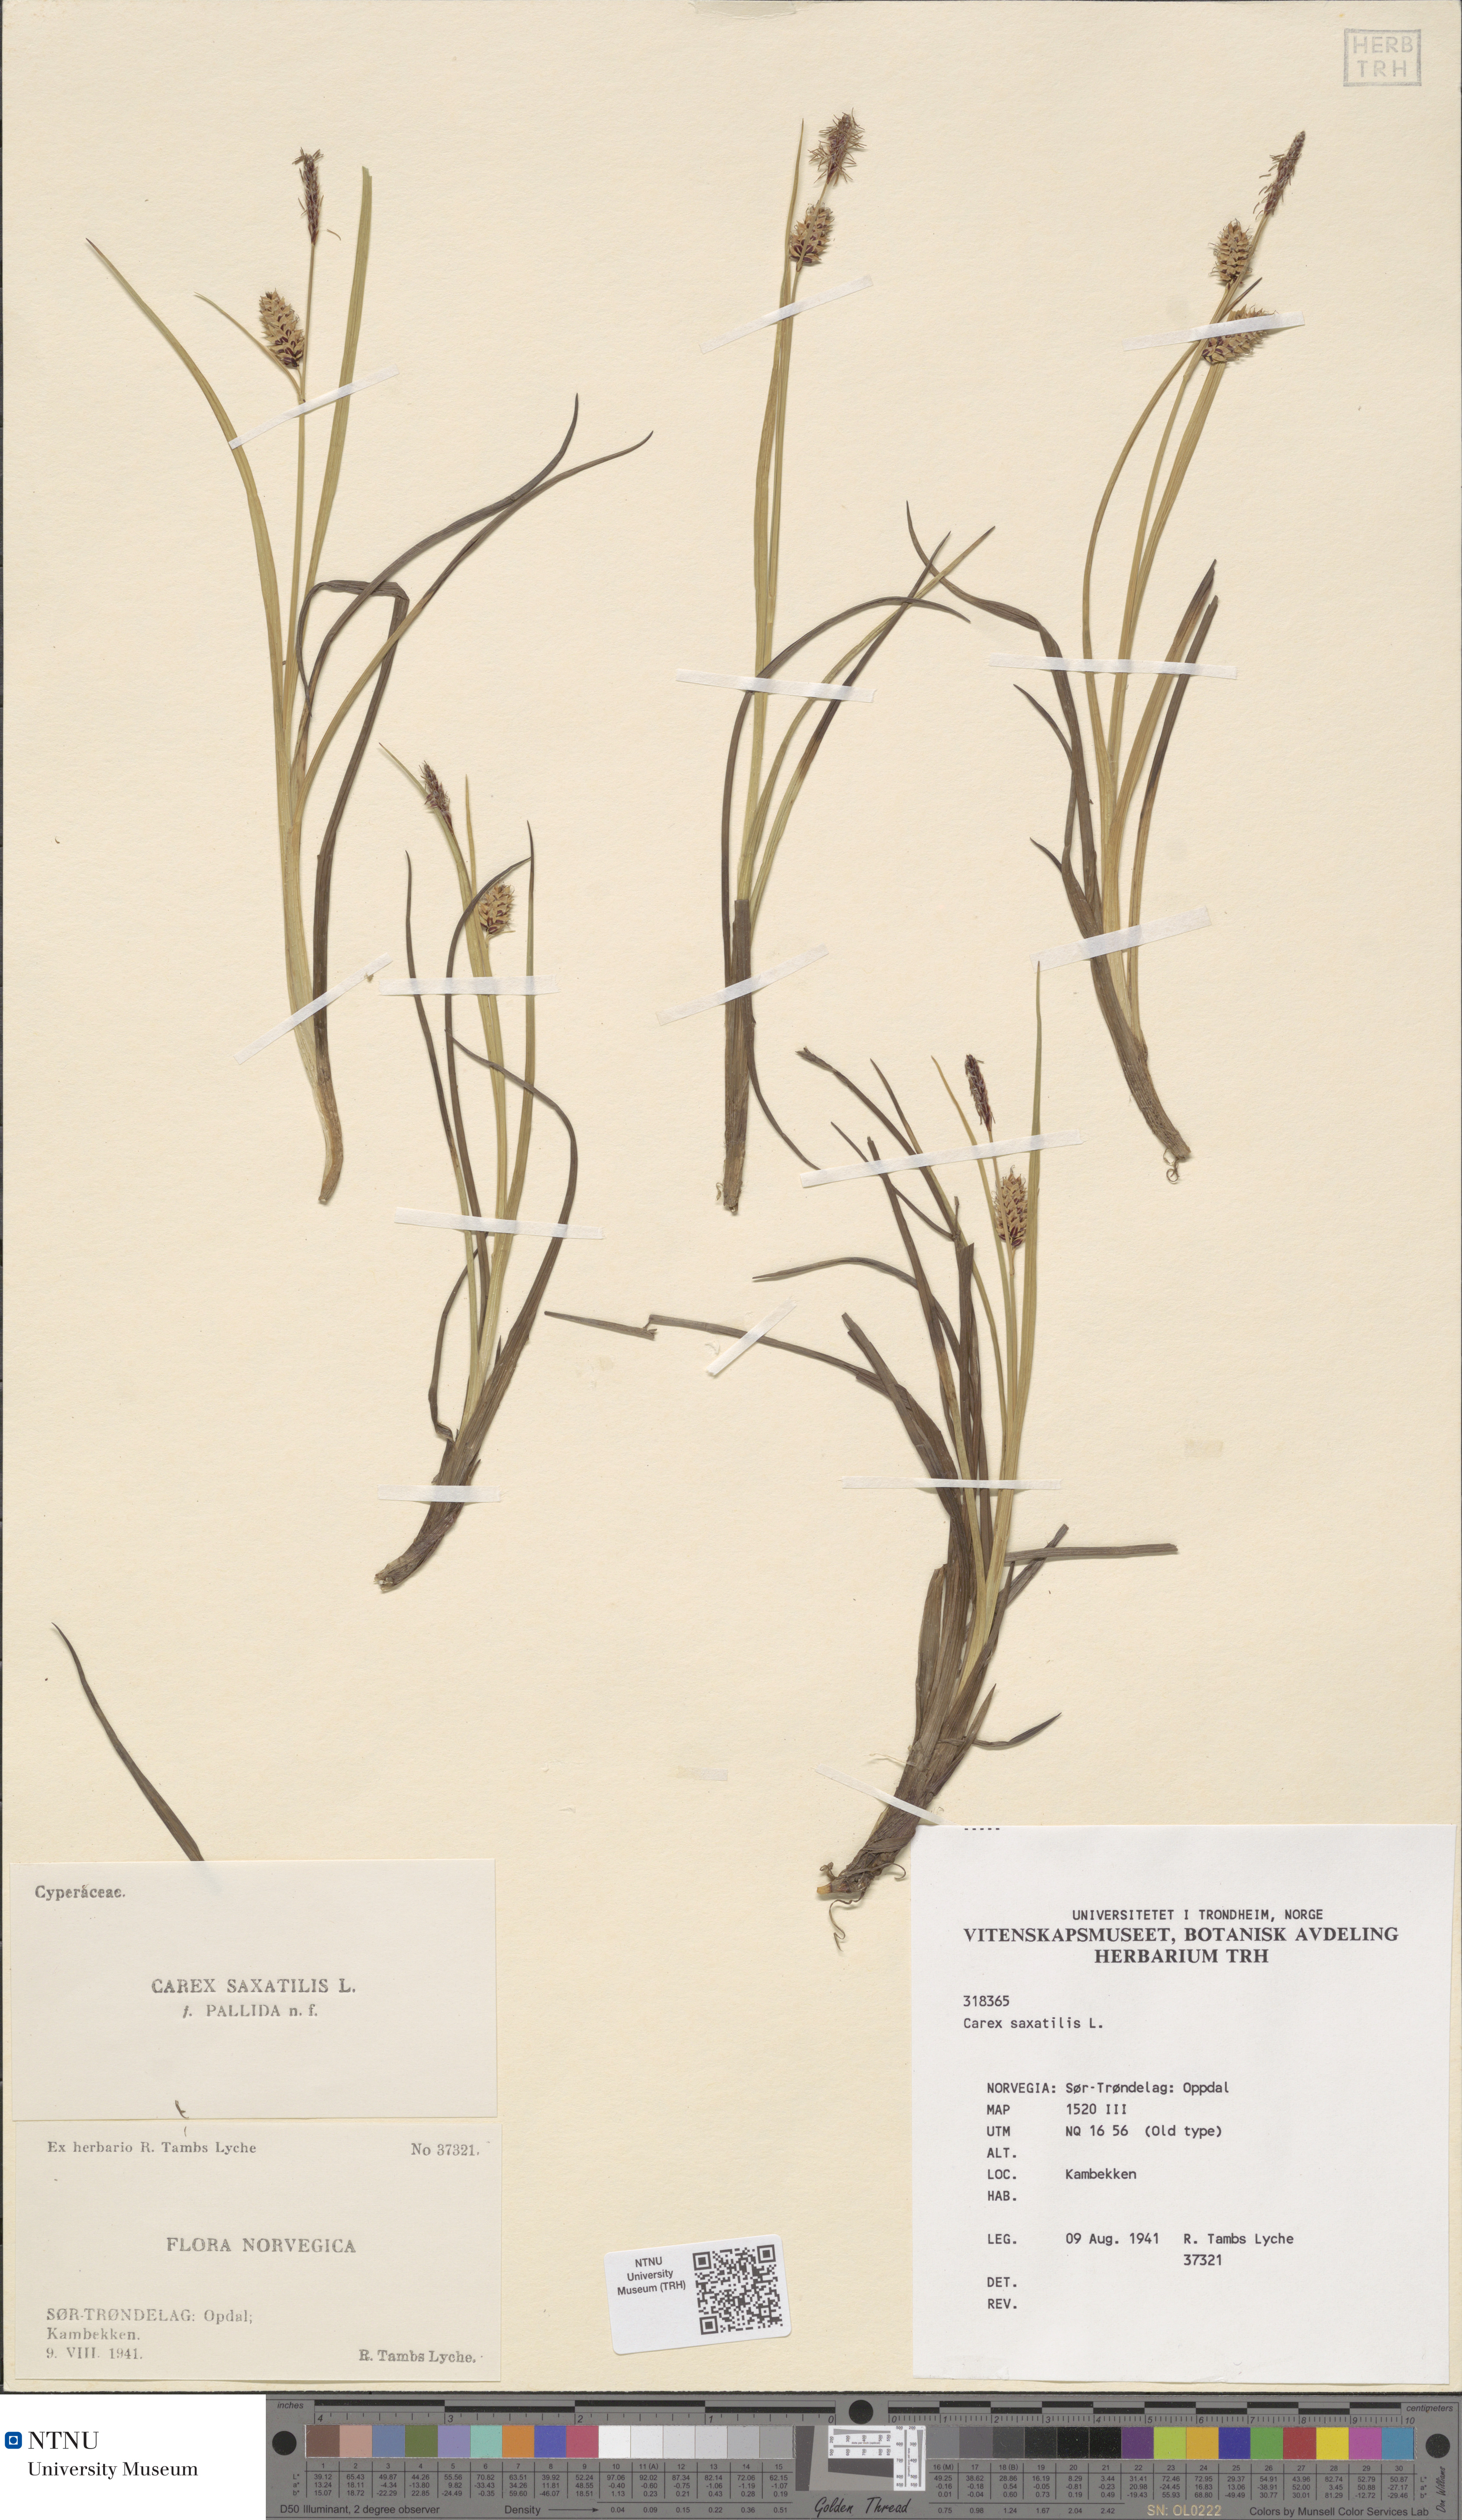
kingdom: Plantae
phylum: Tracheophyta
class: Liliopsida
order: Poales
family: Cyperaceae
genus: Carex
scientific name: Carex saxatilis
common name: Russet sedge
